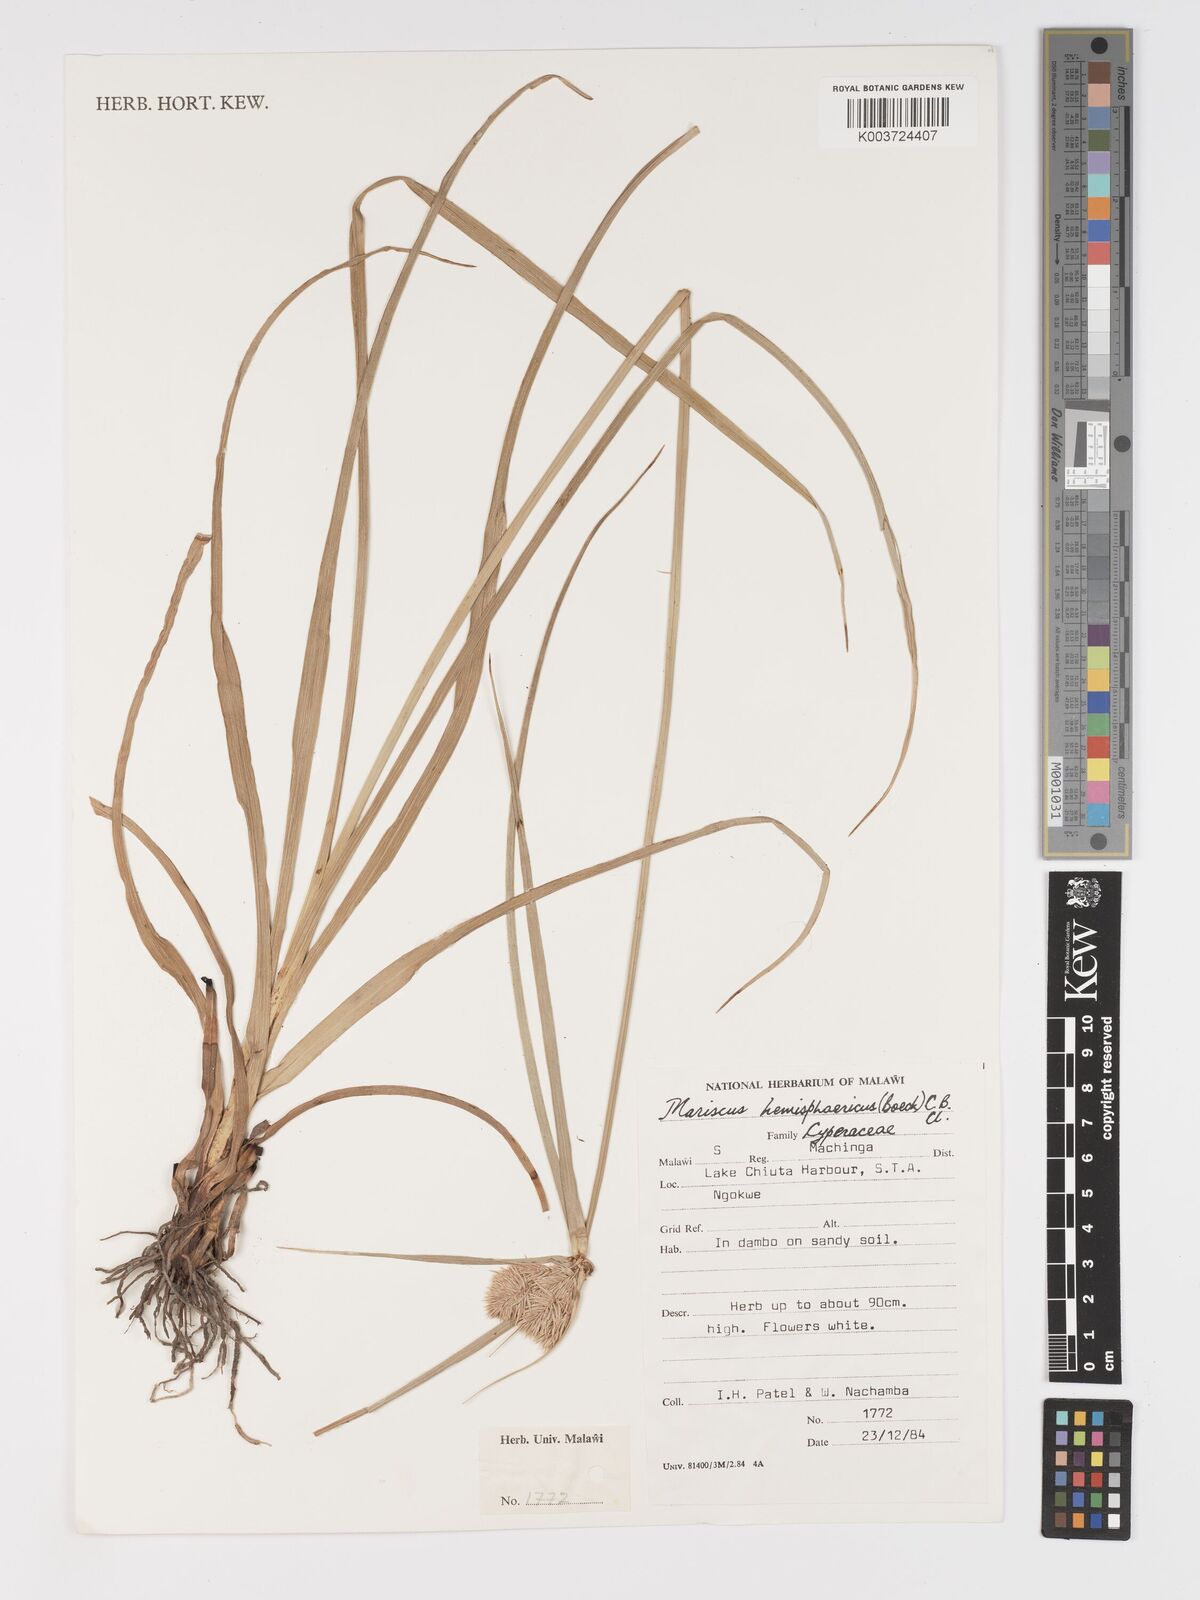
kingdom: Plantae
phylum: Tracheophyta
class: Liliopsida
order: Poales
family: Cyperaceae
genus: Cyperus
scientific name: Cyperus hemisphaericus
